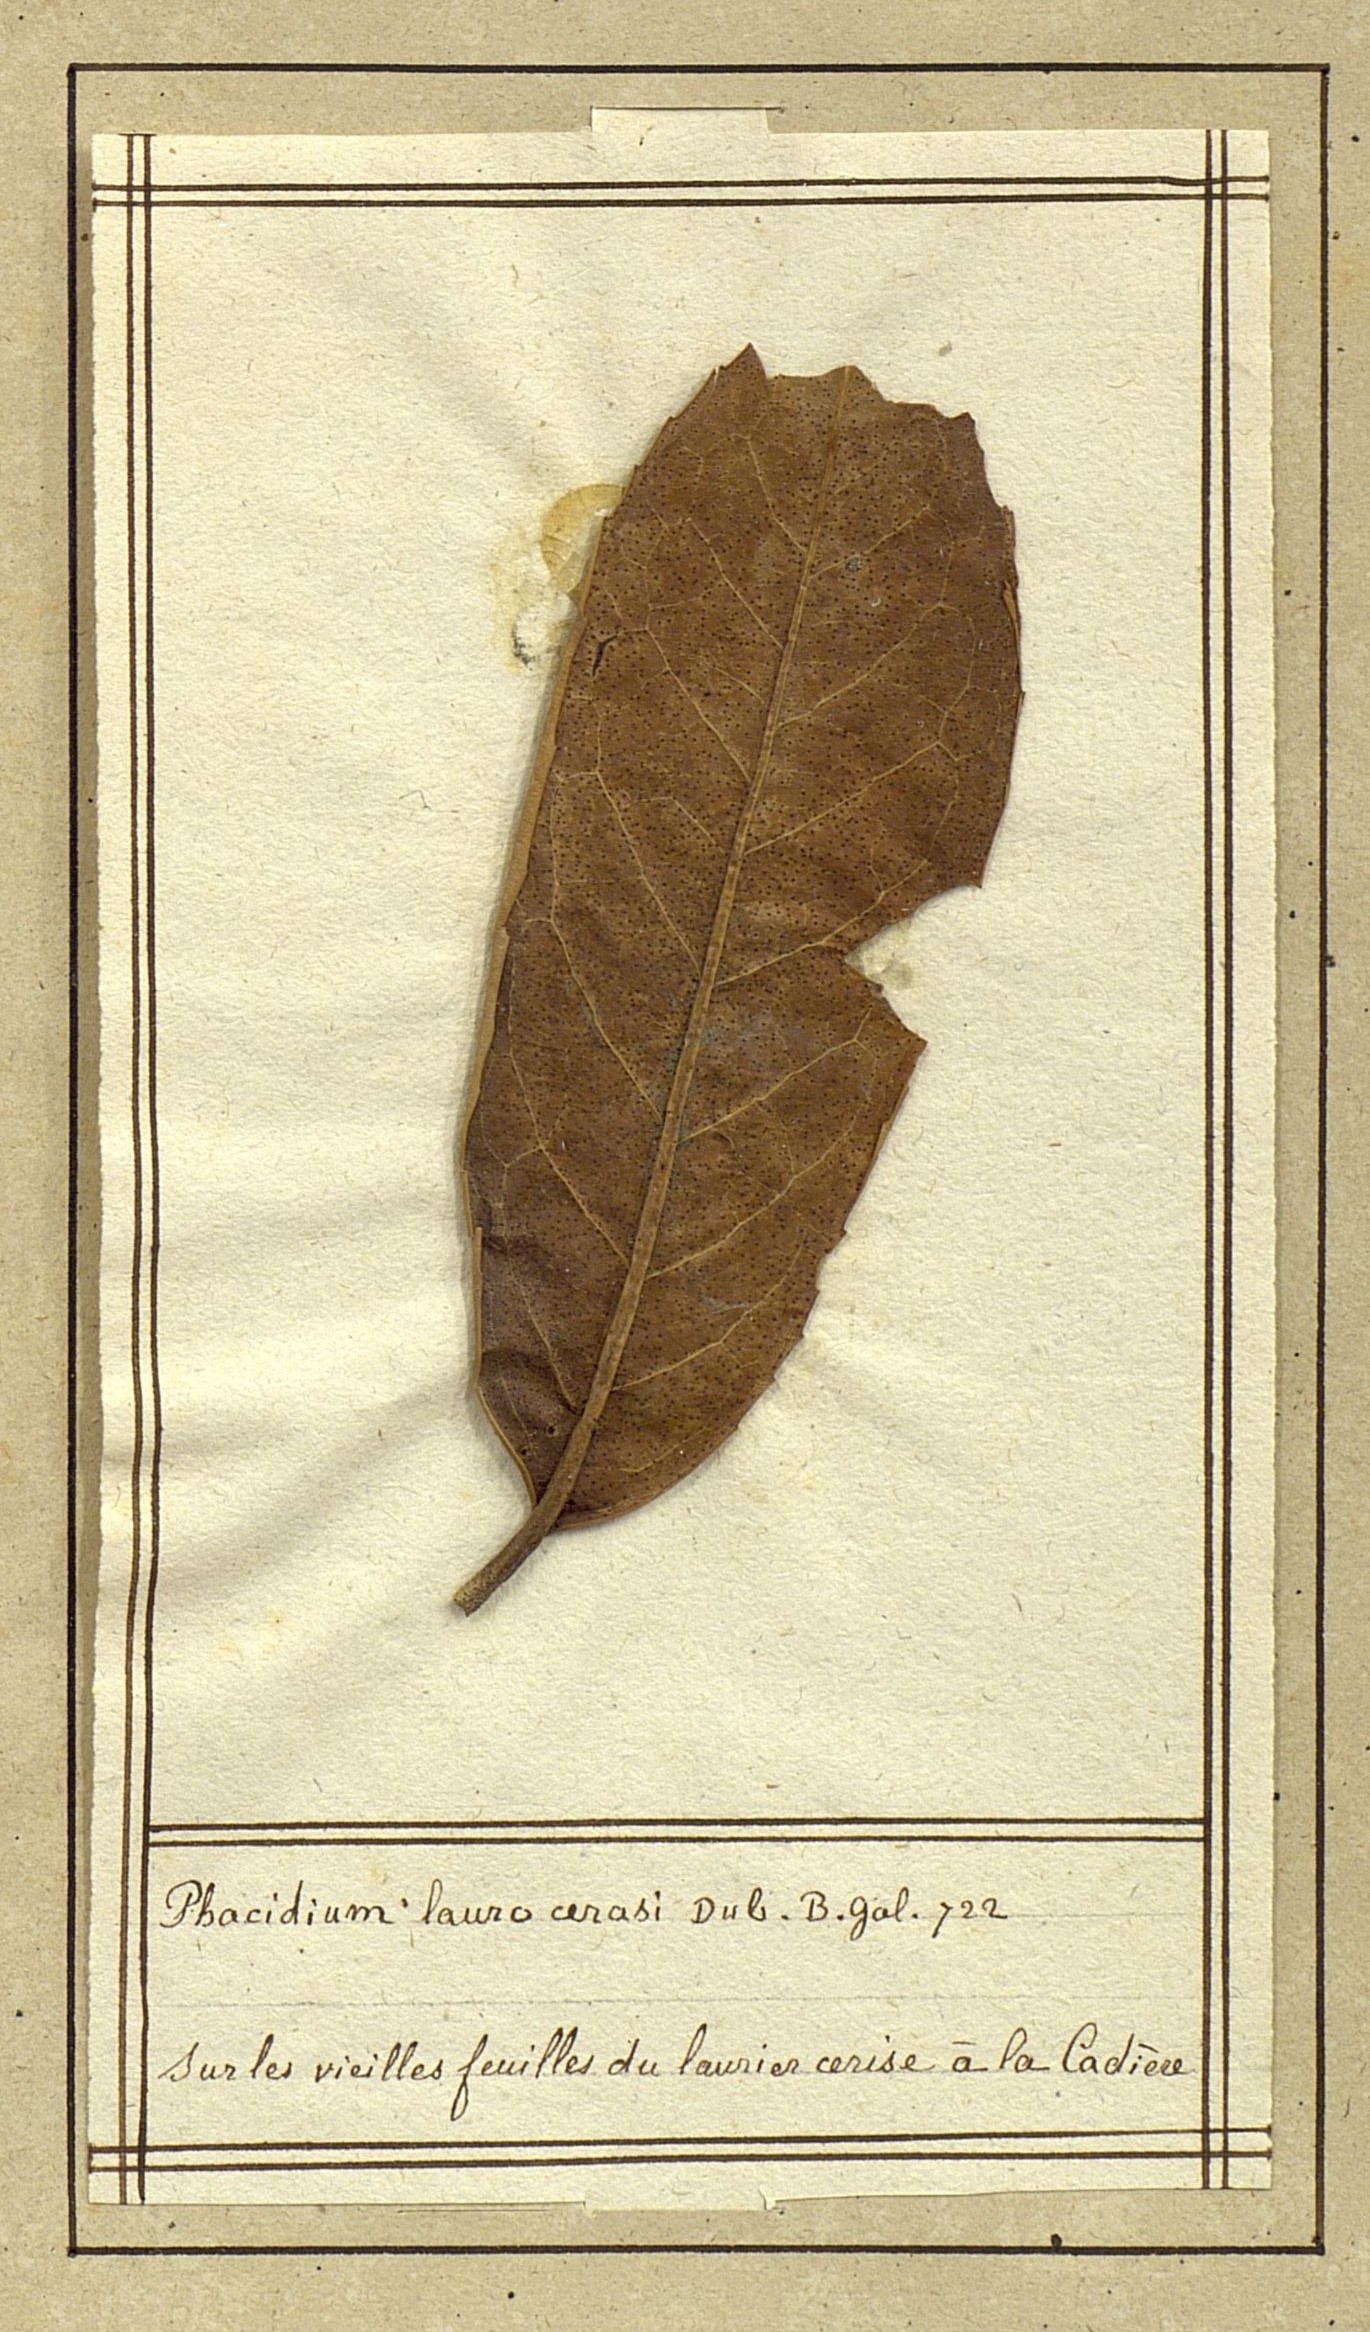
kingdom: Fungi
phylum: Ascomycota
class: Leotiomycetes
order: Helotiales
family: Cenangiaceae
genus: Trochila
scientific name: Trochila laurocerasi
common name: Laurel speckle
